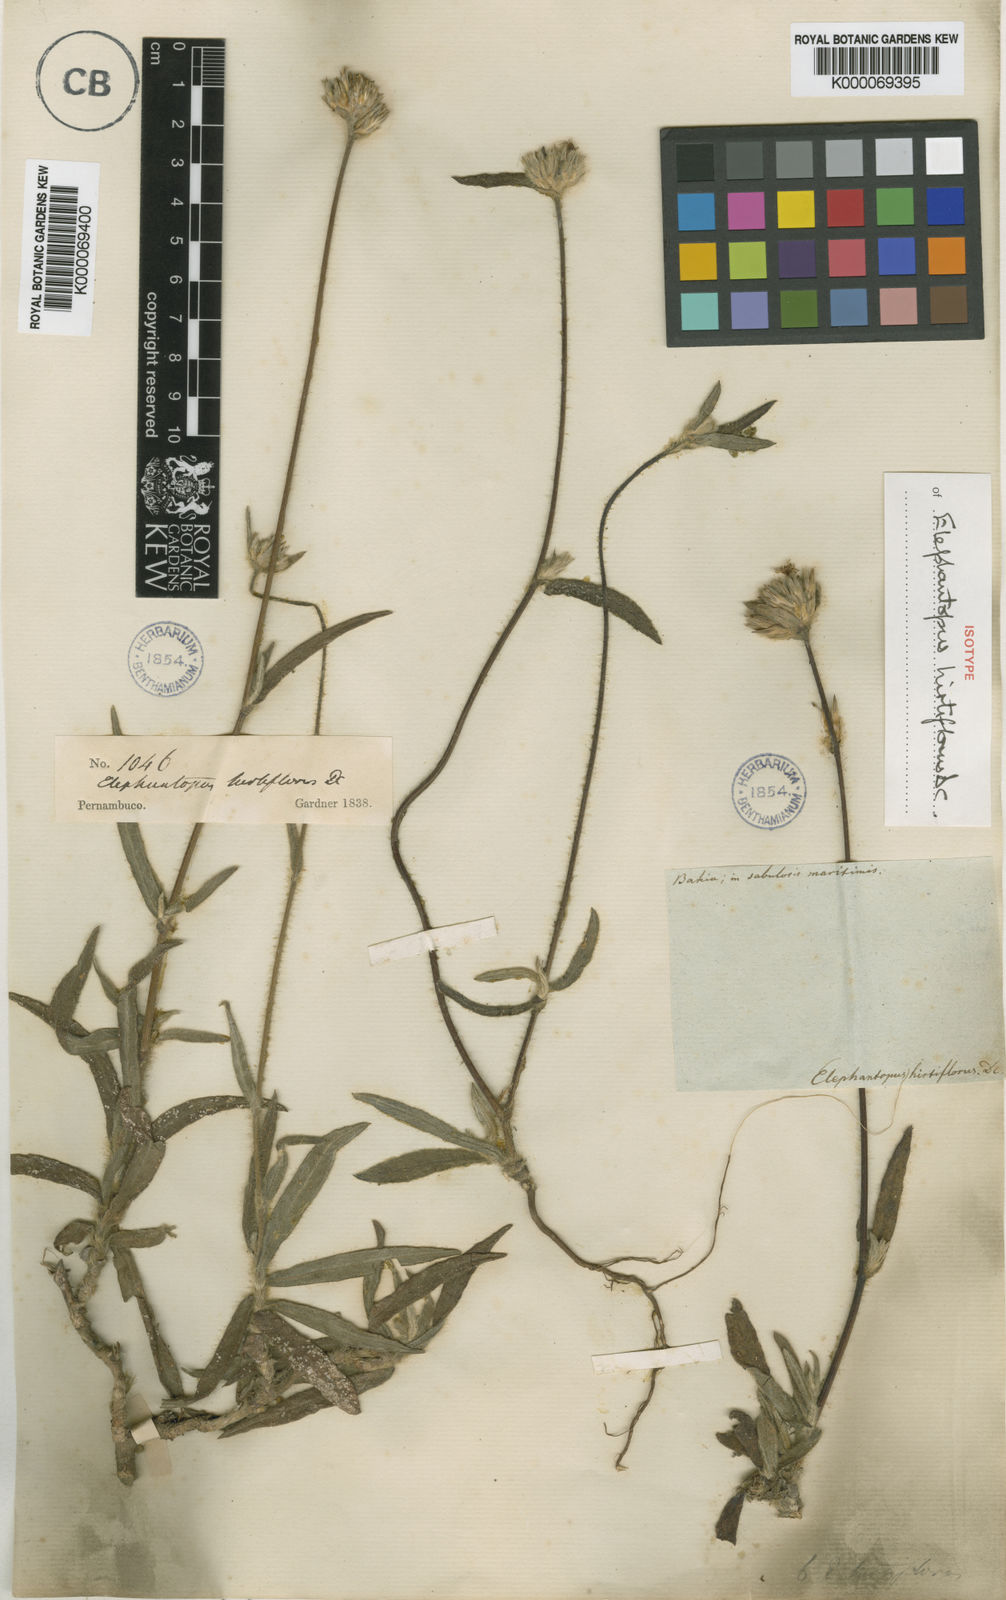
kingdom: Plantae
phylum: Tracheophyta
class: Magnoliopsida
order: Asterales
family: Asteraceae
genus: Elephantopus
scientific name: Elephantopus hirtiflorus
